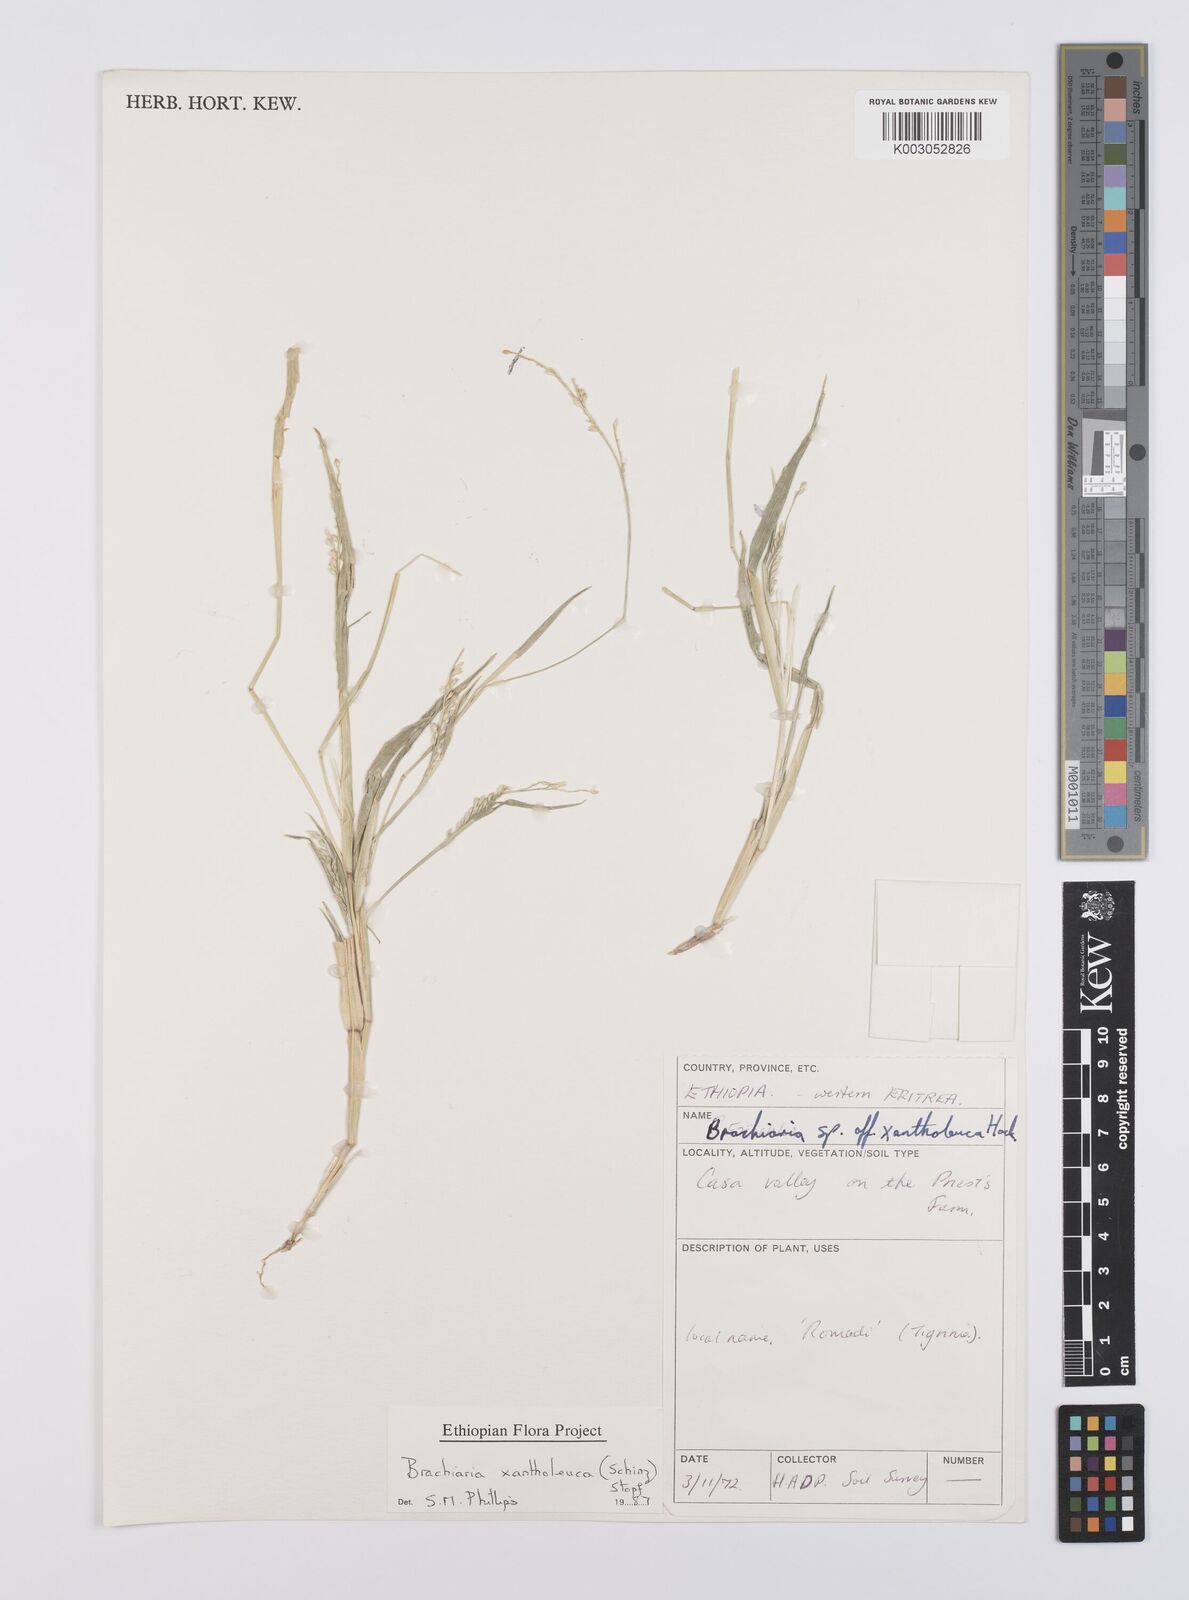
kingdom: Plantae
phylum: Tracheophyta
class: Liliopsida
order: Poales
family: Poaceae
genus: Urochloa
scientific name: Urochloa xantholeuca
